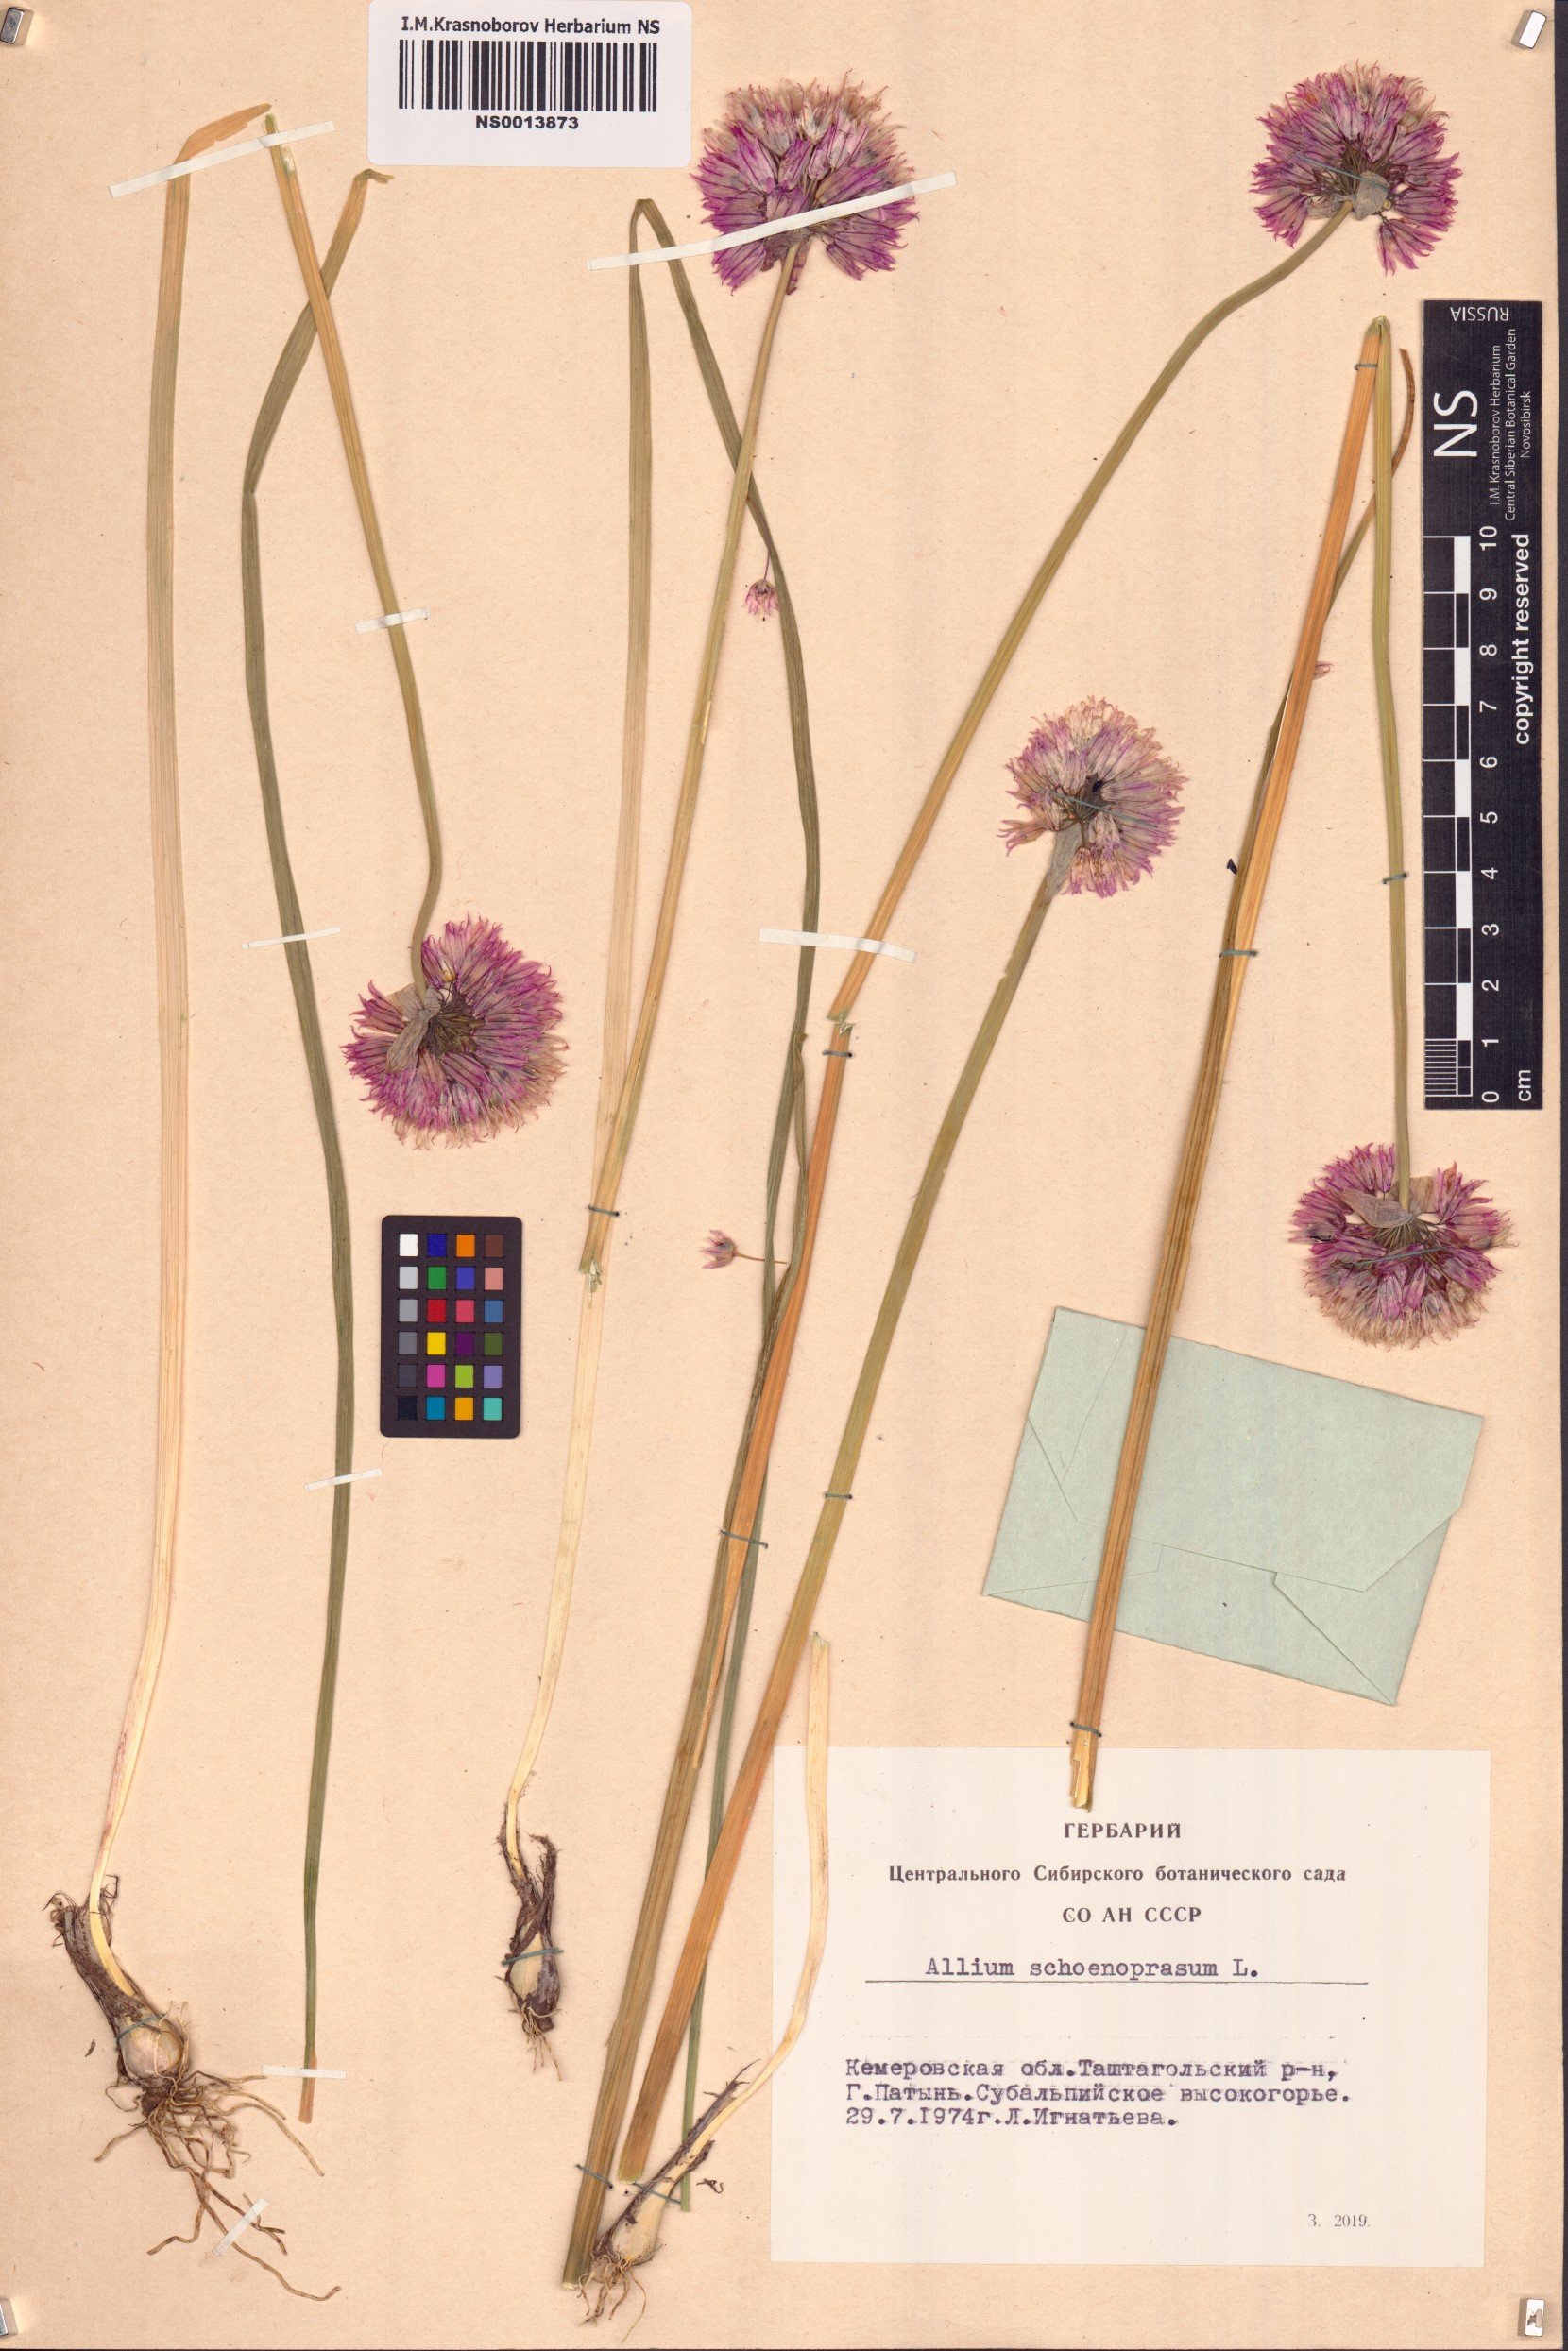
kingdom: Plantae
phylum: Tracheophyta
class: Liliopsida
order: Asparagales
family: Amaryllidaceae
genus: Allium
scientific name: Allium schoenoprasum
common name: Chives
